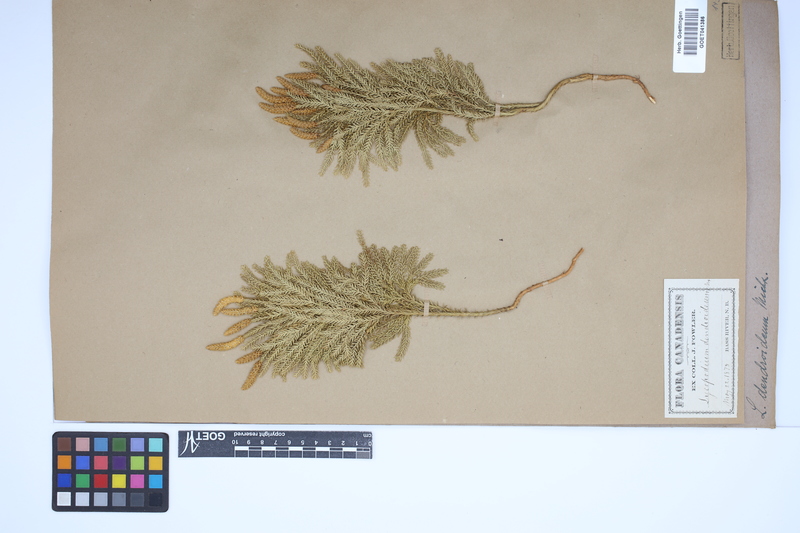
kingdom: Plantae
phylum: Tracheophyta
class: Lycopodiopsida
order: Lycopodiales
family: Lycopodiaceae
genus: Dendrolycopodium
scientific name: Dendrolycopodium dendroideum
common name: Northern tree-clubmoss
